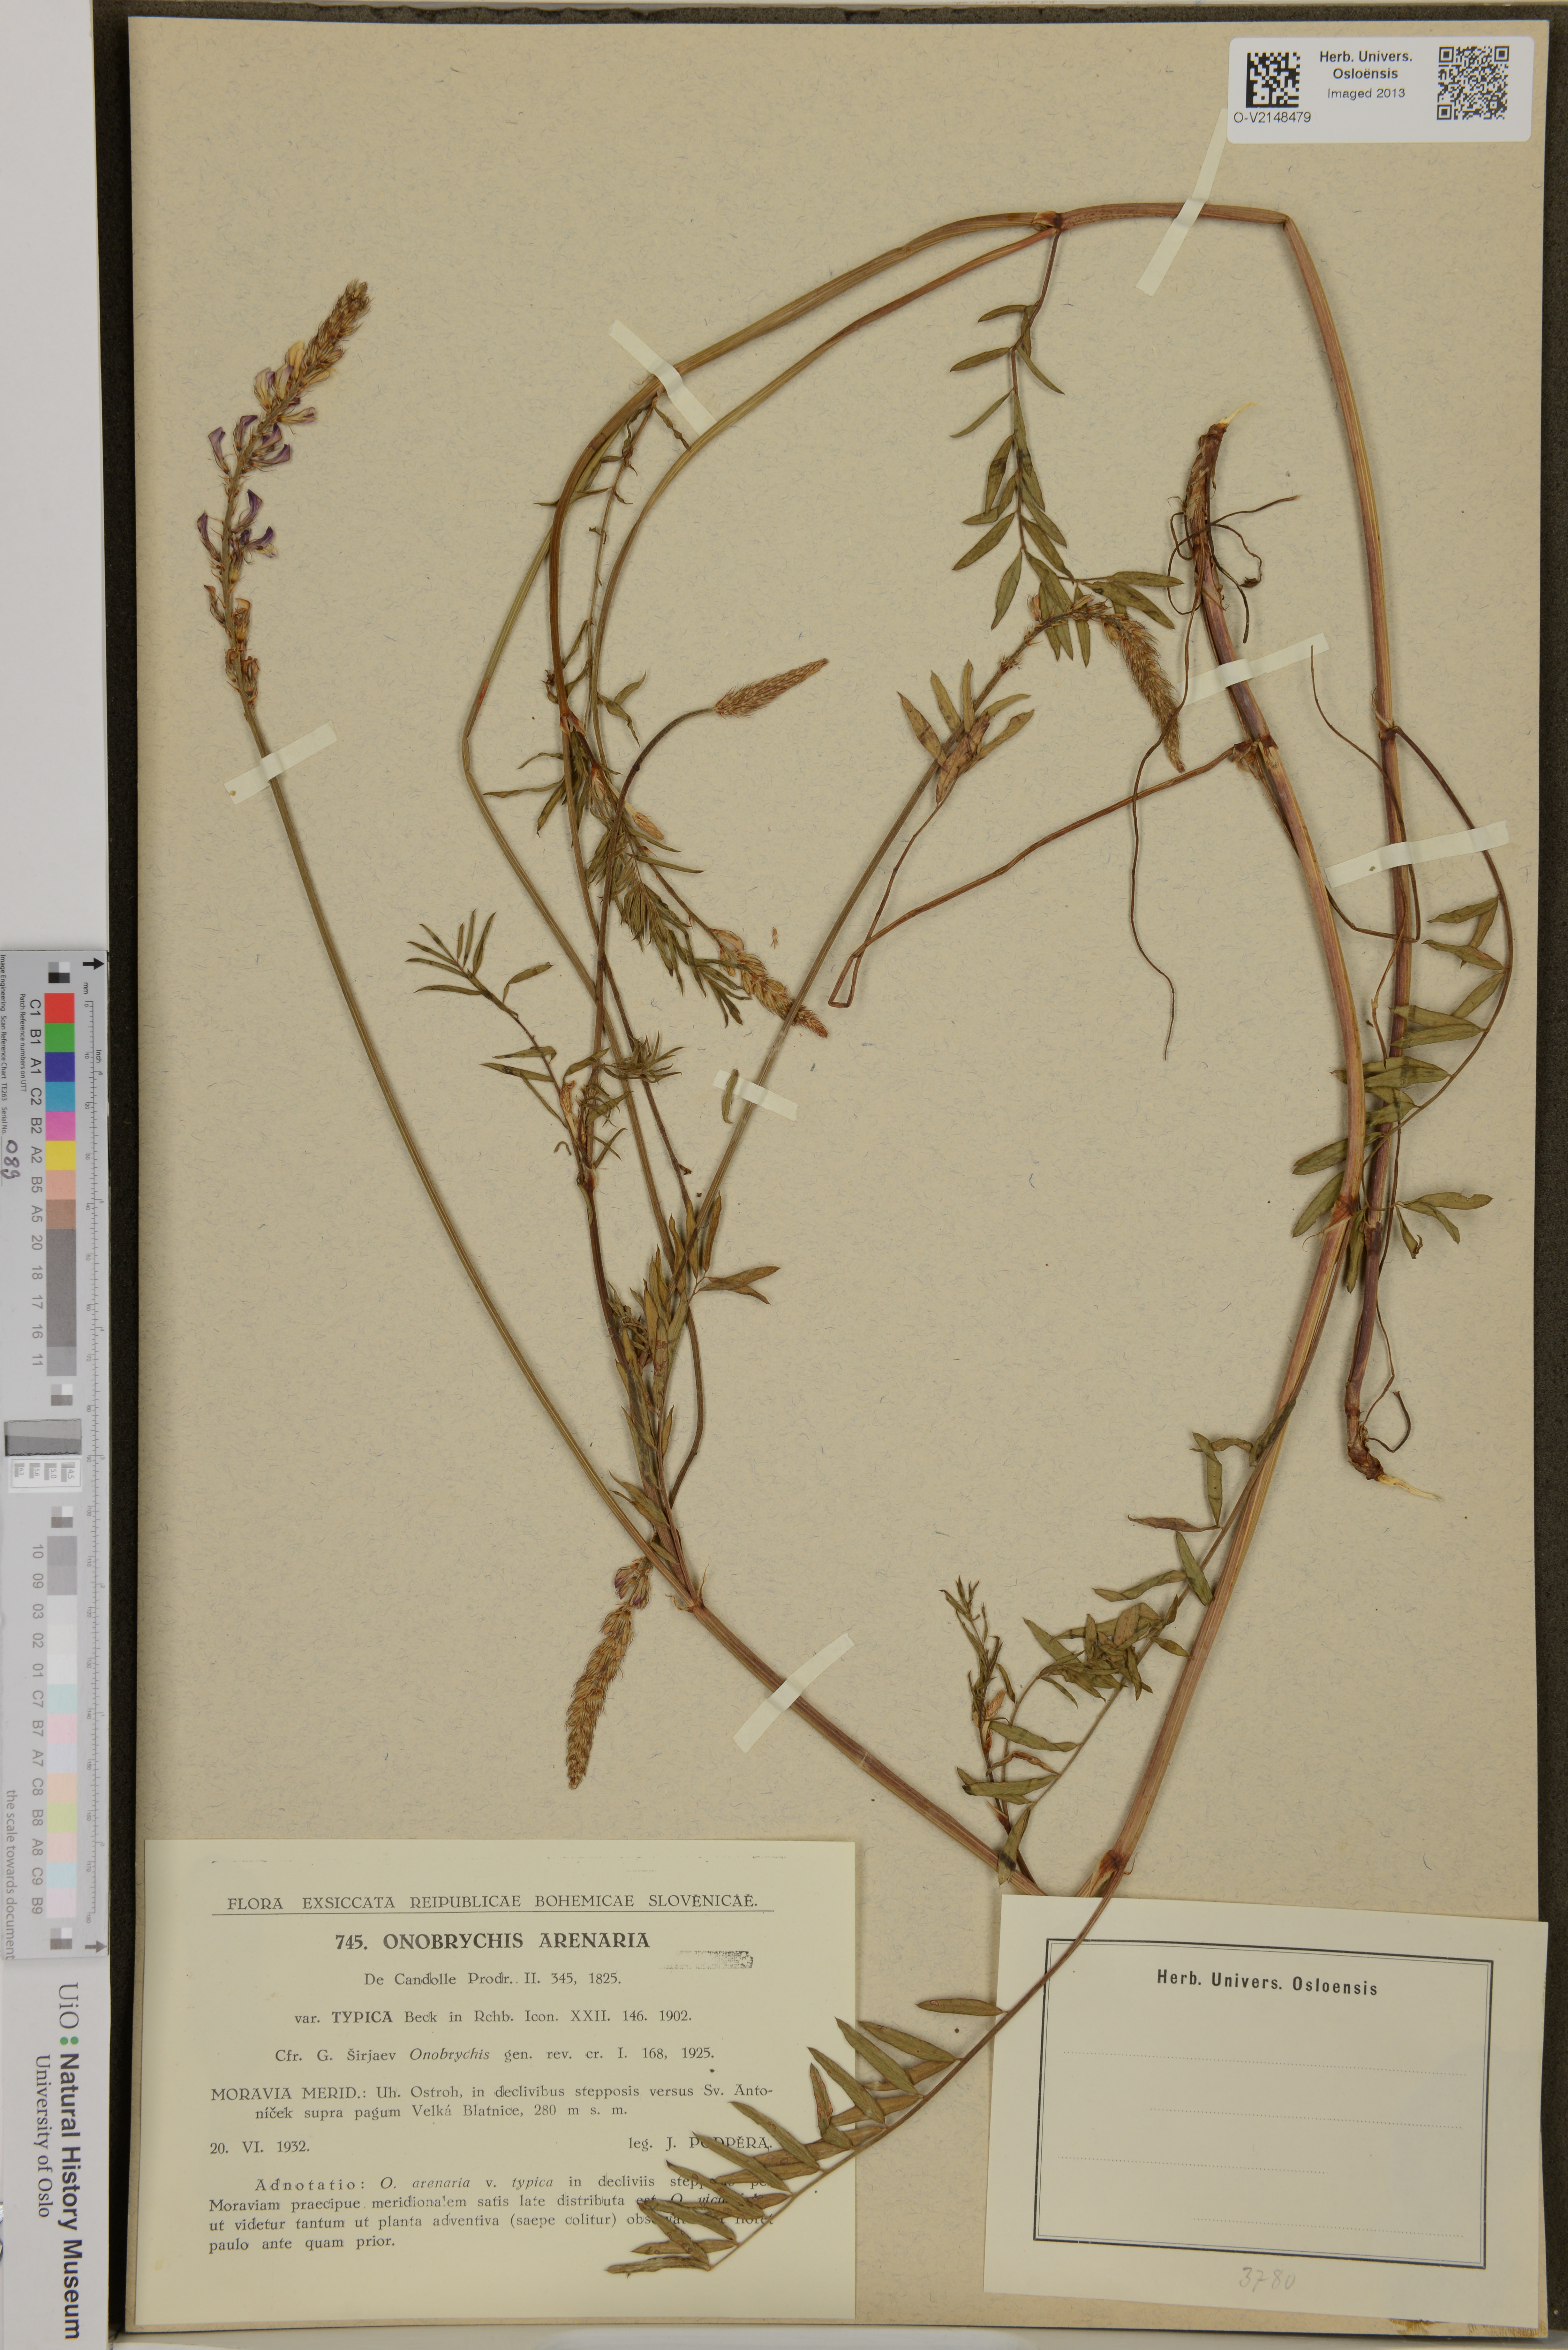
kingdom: Plantae
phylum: Tracheophyta
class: Magnoliopsida
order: Fabales
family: Fabaceae
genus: Onobrychis
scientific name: Onobrychis arenaria
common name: Sand esparcet
